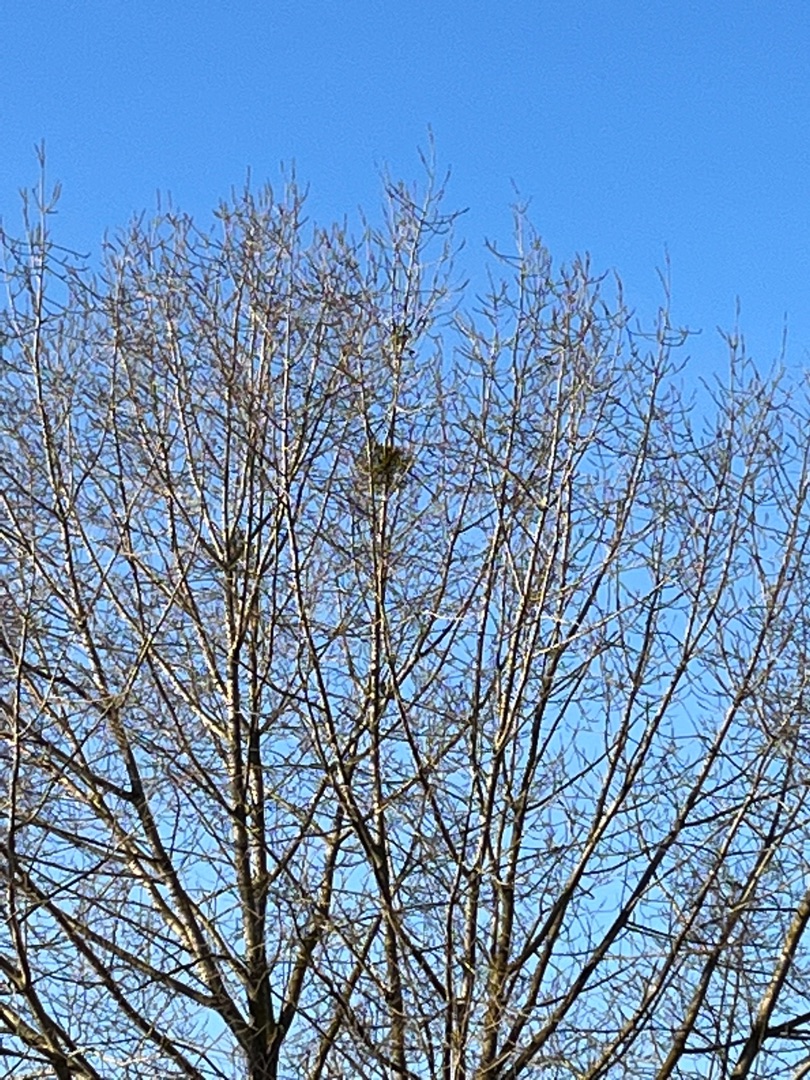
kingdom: Plantae
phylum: Tracheophyta
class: Magnoliopsida
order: Santalales
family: Viscaceae
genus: Viscum
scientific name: Viscum album
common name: Mistelten
